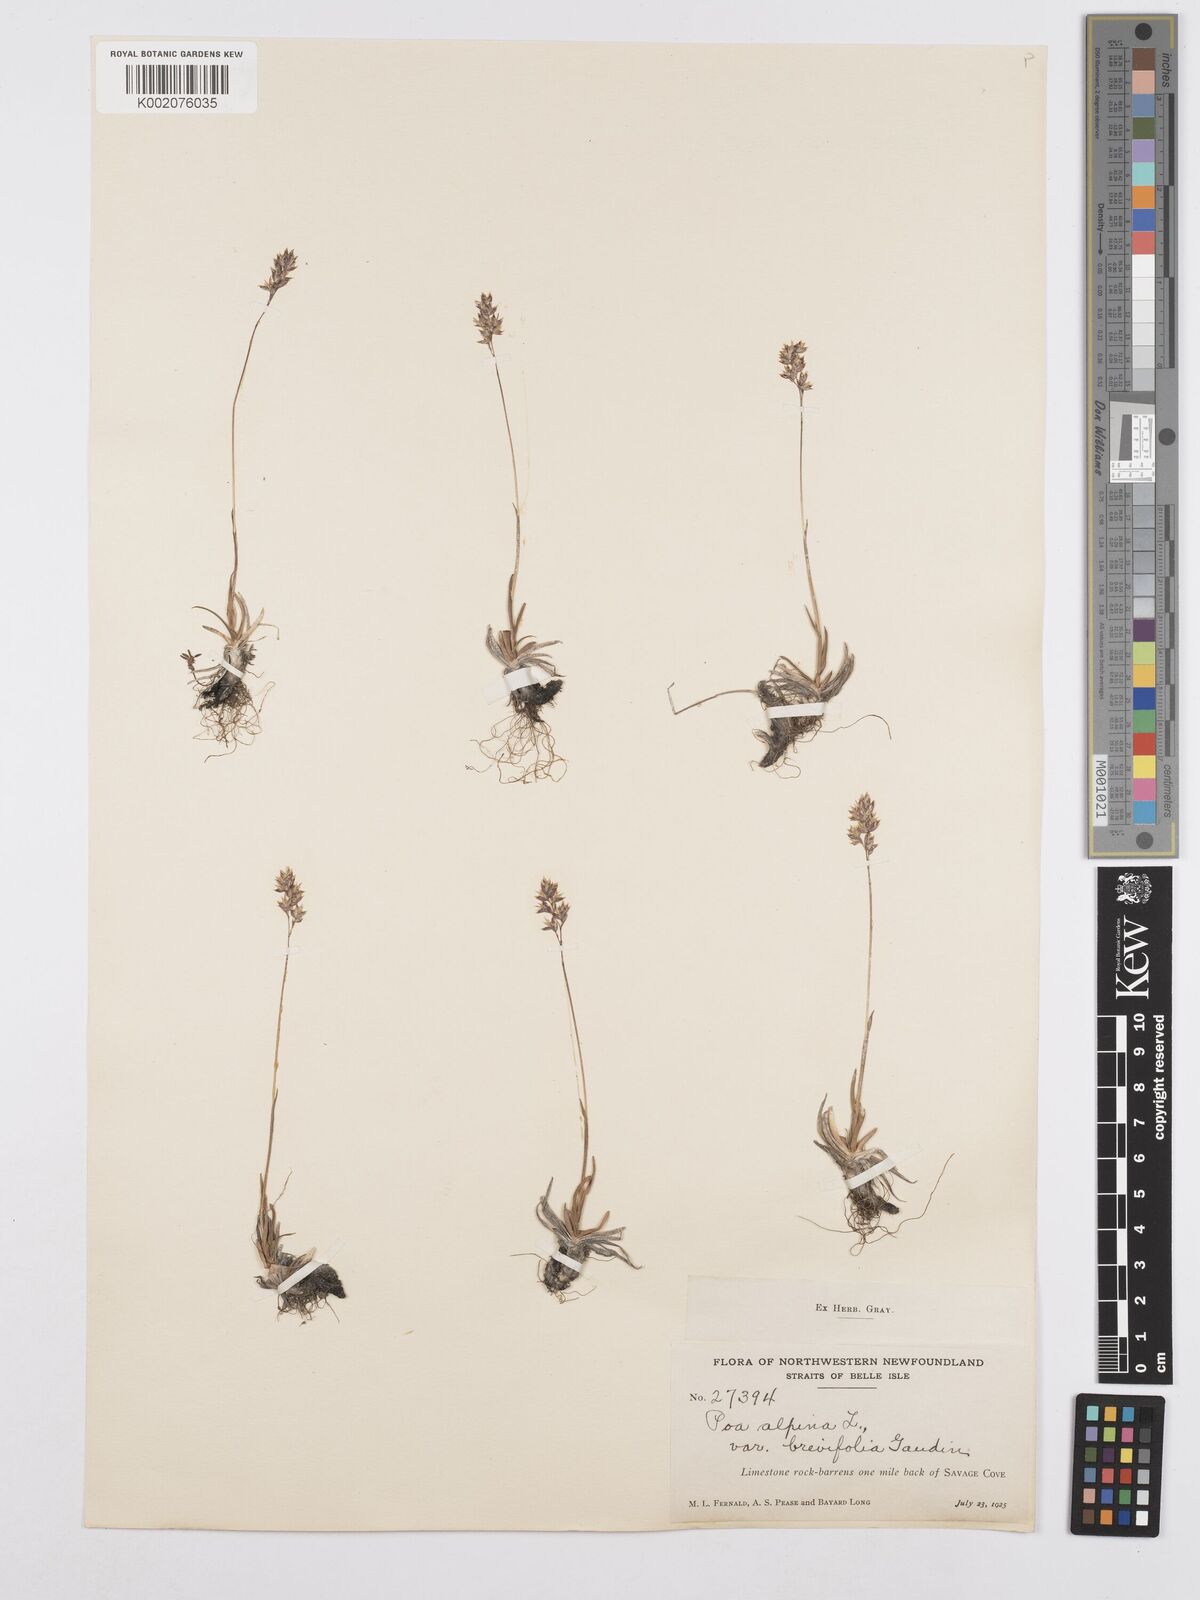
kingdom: Plantae
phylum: Tracheophyta
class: Liliopsida
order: Poales
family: Poaceae
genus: Poa
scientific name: Poa alpina
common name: Alpine bluegrass
